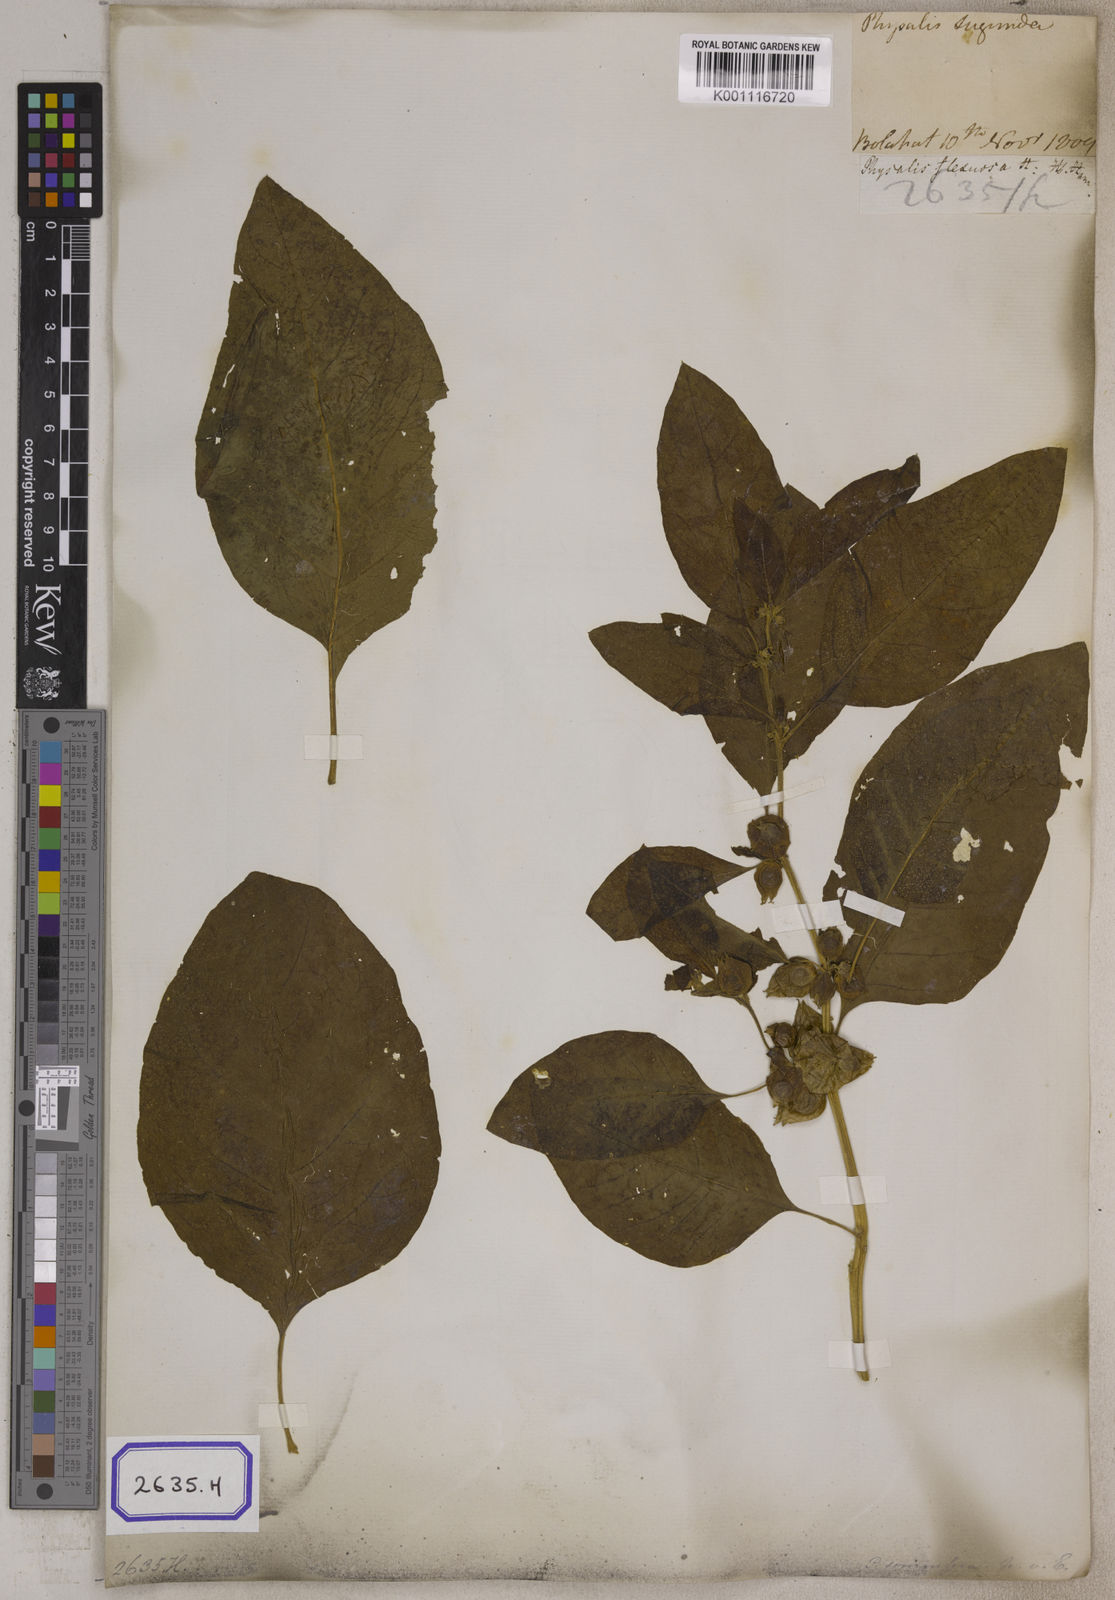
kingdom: Plantae
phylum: Tracheophyta
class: Magnoliopsida
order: Solanales
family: Solanaceae
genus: Withania
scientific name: Withania somnifera
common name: Winter-cherry
